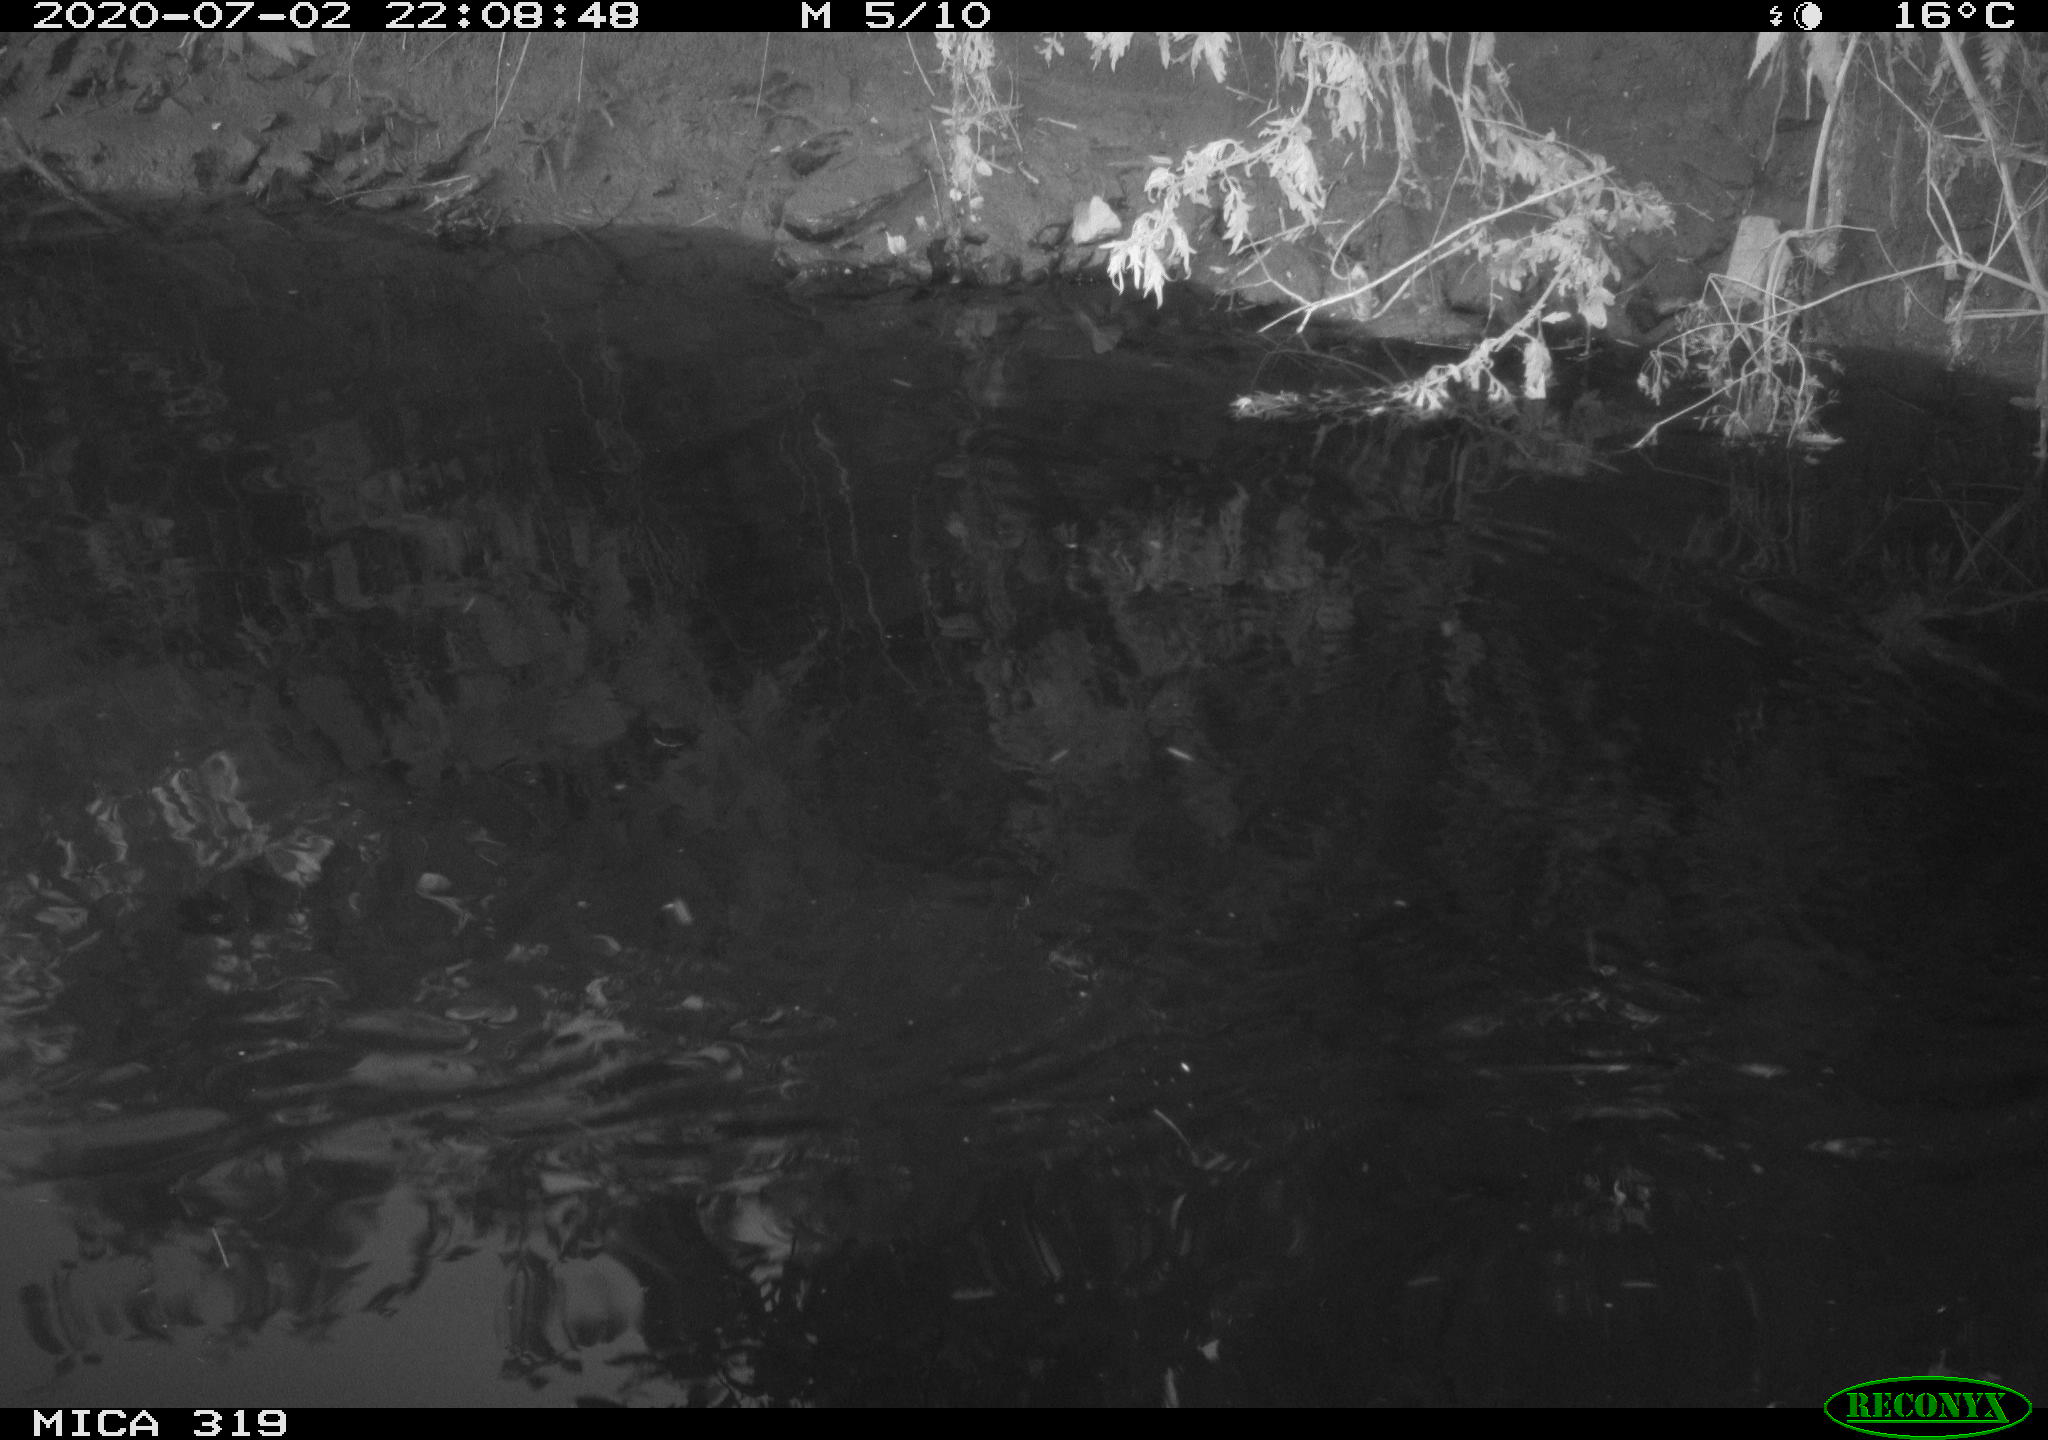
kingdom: Animalia
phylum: Chordata
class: Aves
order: Anseriformes
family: Anatidae
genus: Anas
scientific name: Anas platyrhynchos
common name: Mallard
